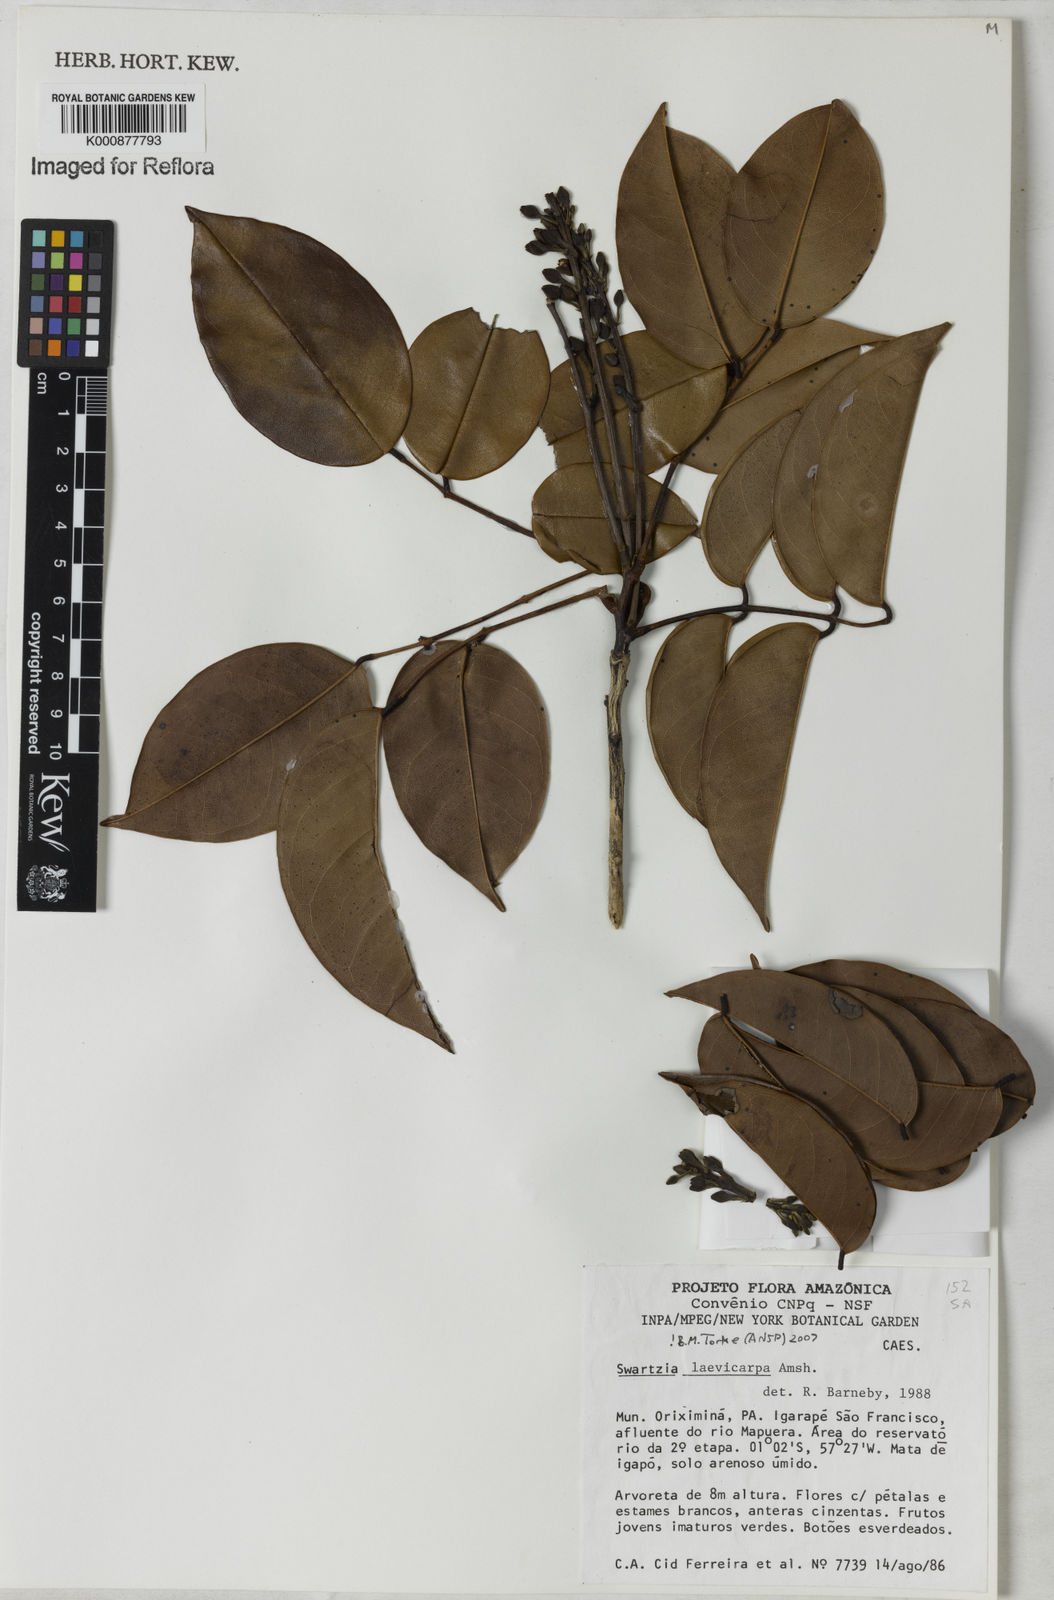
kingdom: Plantae
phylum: Tracheophyta
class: Magnoliopsida
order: Fabales
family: Fabaceae
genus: Swartzia
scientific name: Swartzia laevicarpa
